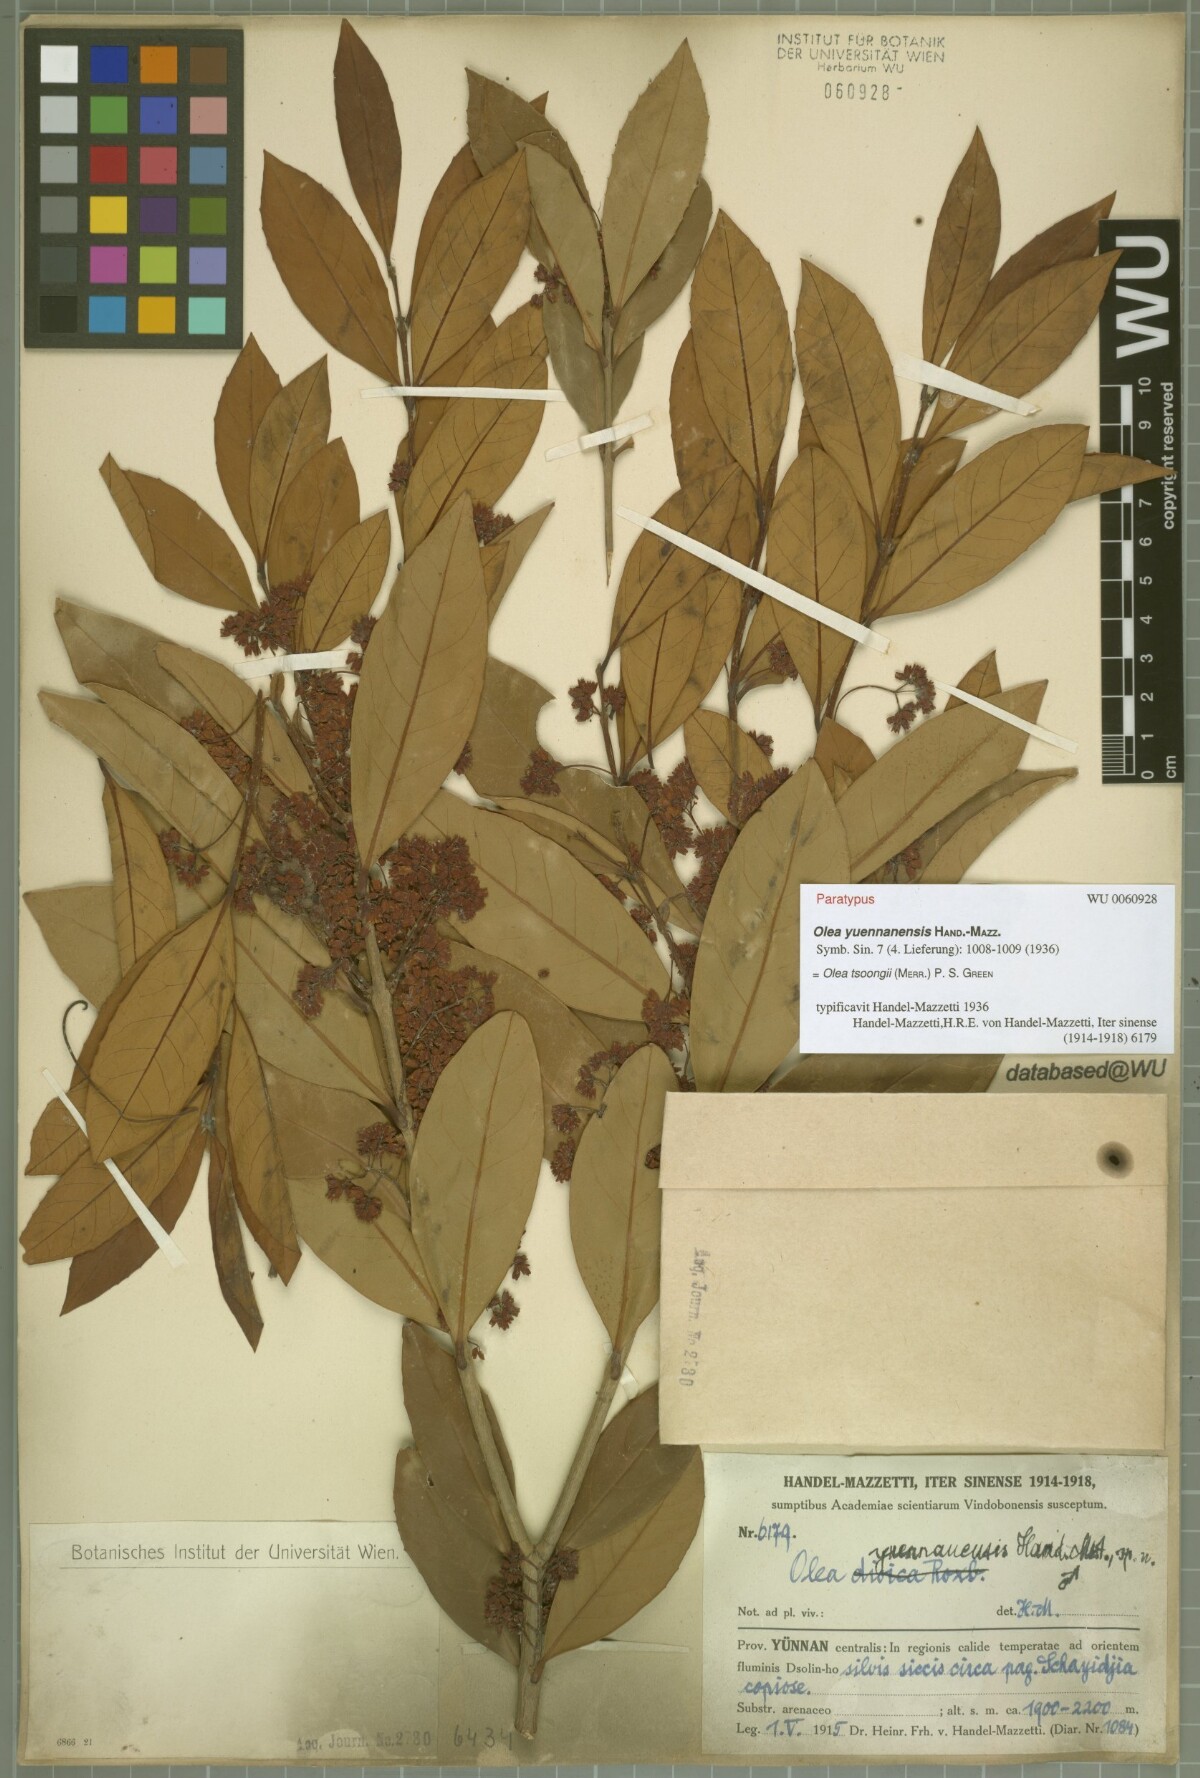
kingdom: Plantae
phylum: Tracheophyta
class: Magnoliopsida
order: Lamiales
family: Oleaceae
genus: Tetrapilus
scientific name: Tetrapilus tsoongii
